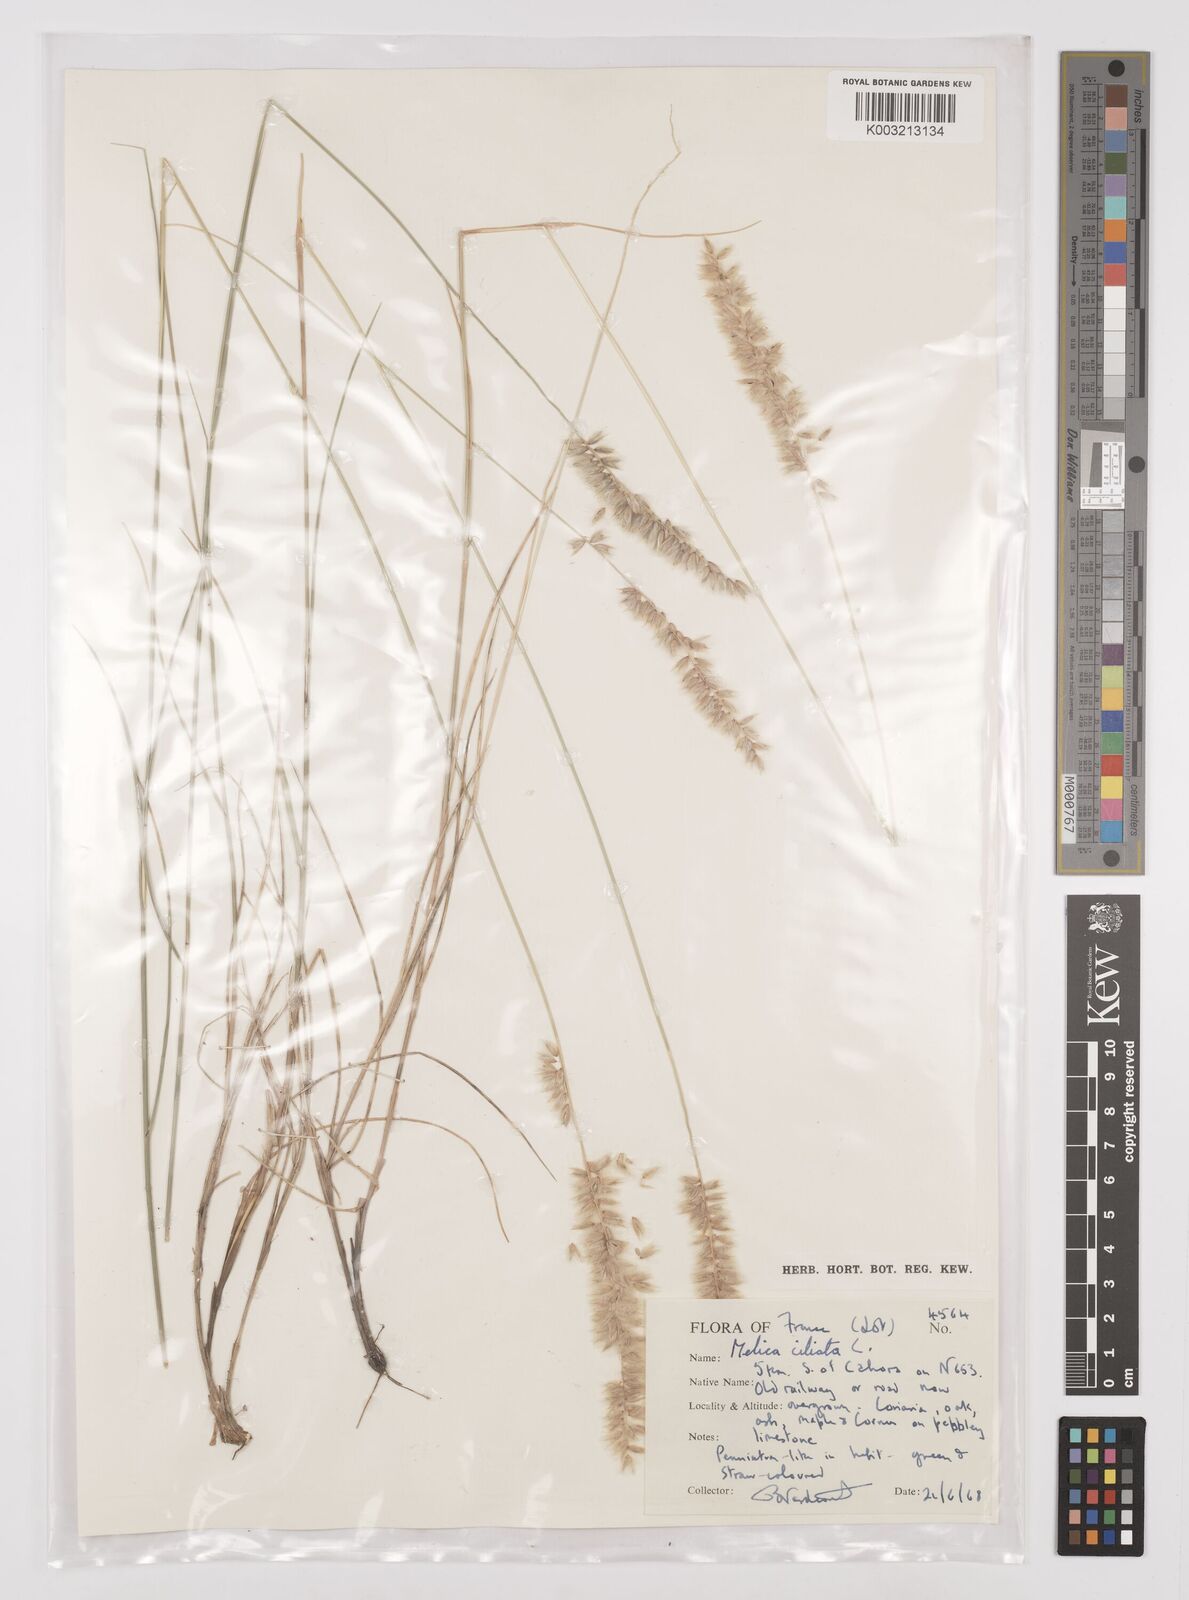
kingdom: Plantae
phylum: Tracheophyta
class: Liliopsida
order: Poales
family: Poaceae
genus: Melica
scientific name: Melica ciliata
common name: Hairy melicgrass
